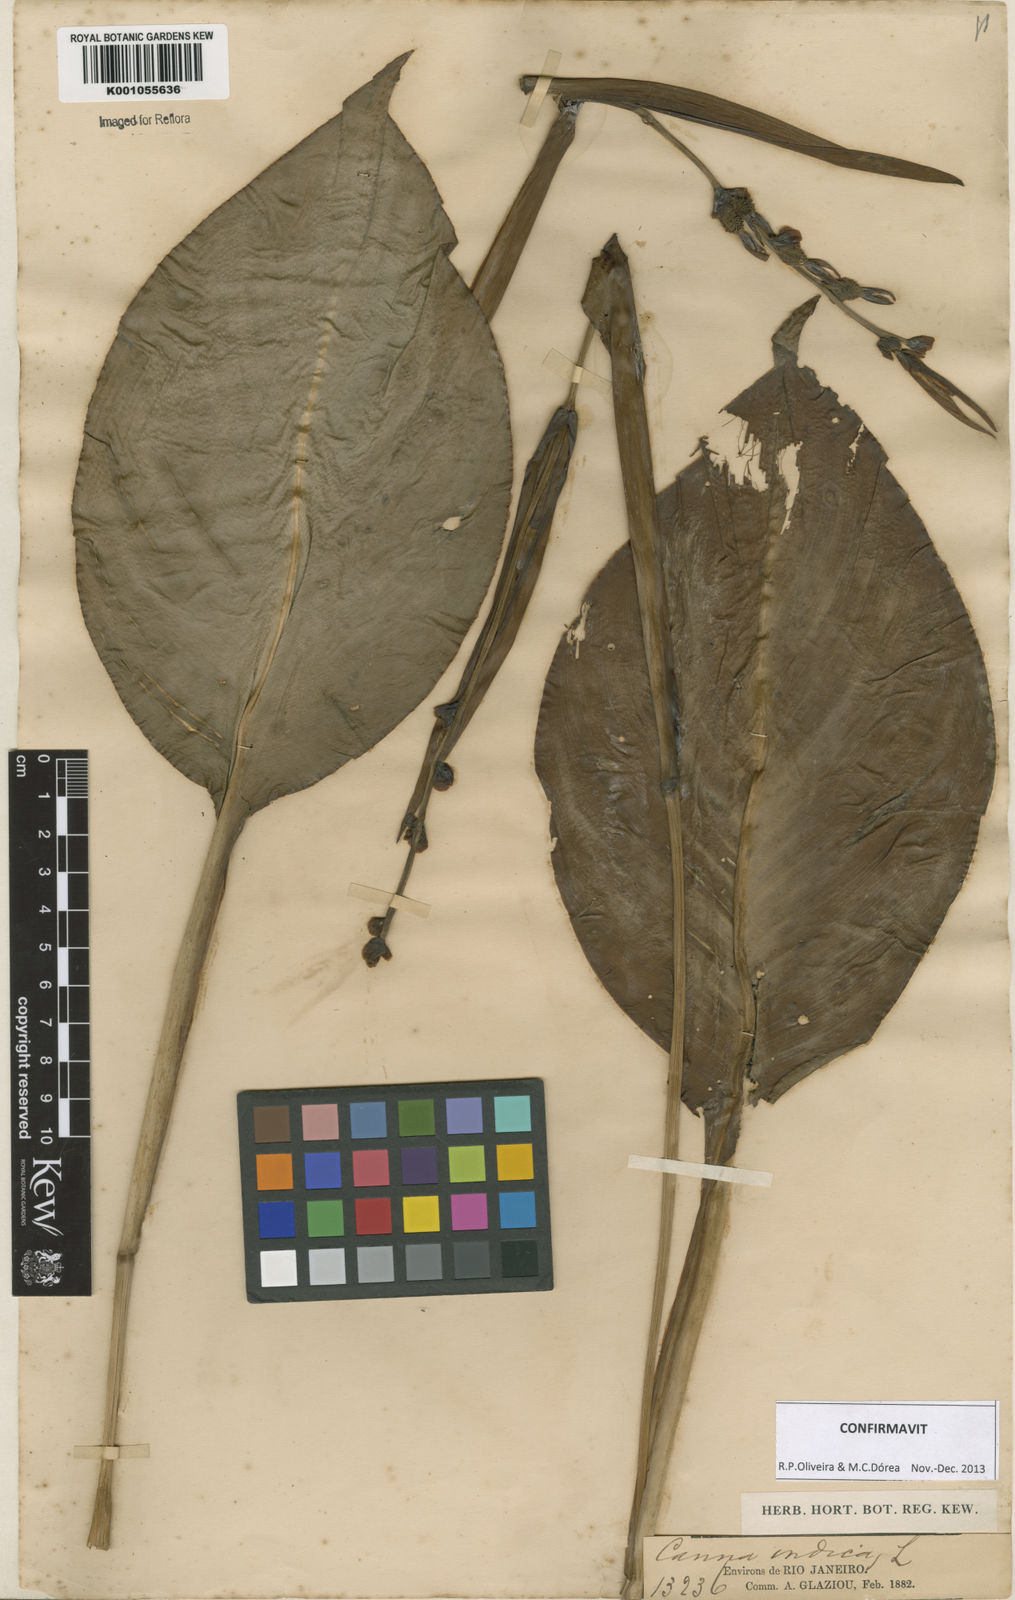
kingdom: Plantae
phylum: Tracheophyta
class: Liliopsida
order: Zingiberales
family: Cannaceae
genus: Canna
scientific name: Canna indica
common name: Indian shot
